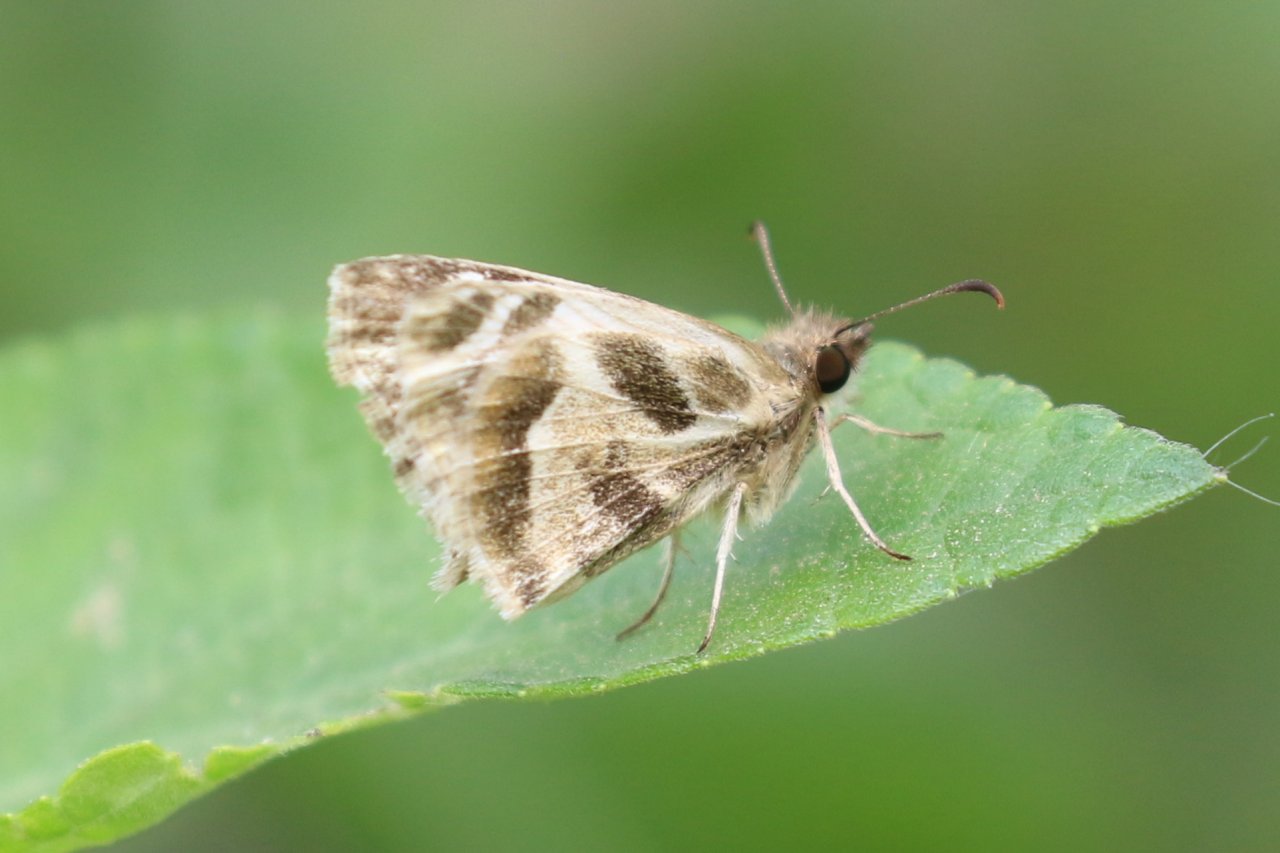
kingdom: Animalia
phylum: Arthropoda
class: Insecta
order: Lepidoptera
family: Hesperiidae
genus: Heliopetes
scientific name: Heliopetes macaira
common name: Turk's-cap White-Skipper
